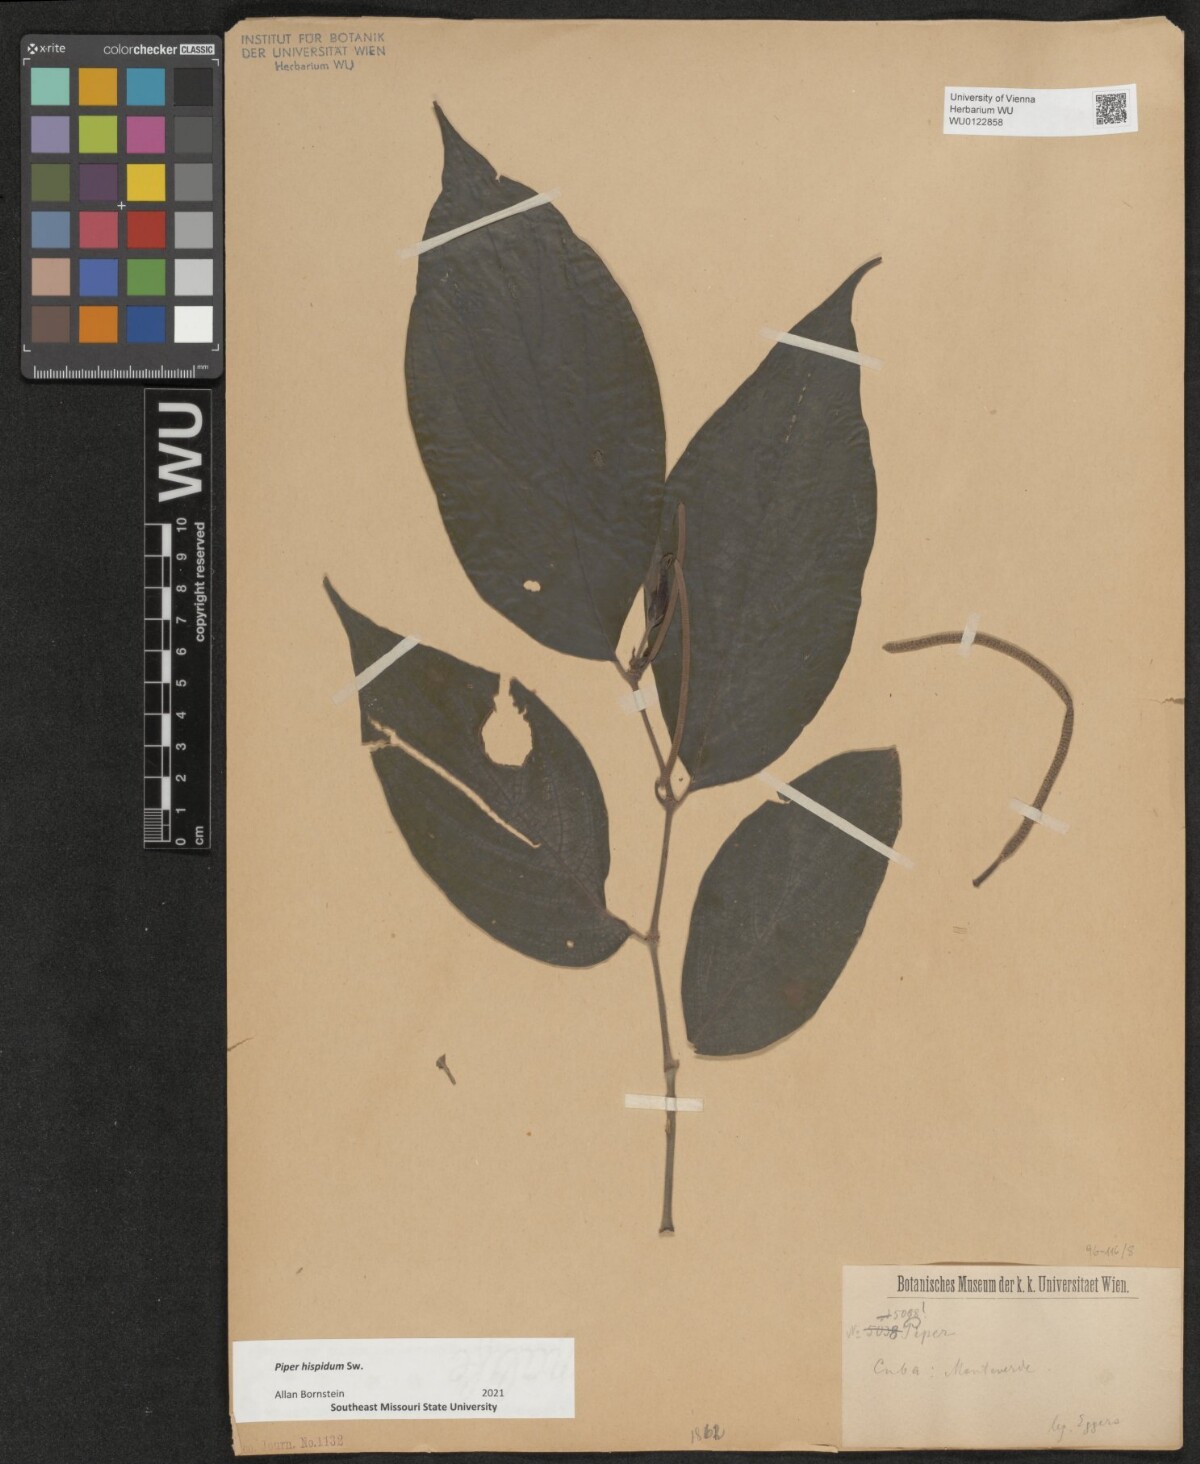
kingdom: Plantae
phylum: Tracheophyta
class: Magnoliopsida
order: Piperales
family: Piperaceae
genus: Piper
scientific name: Piper hispidum
